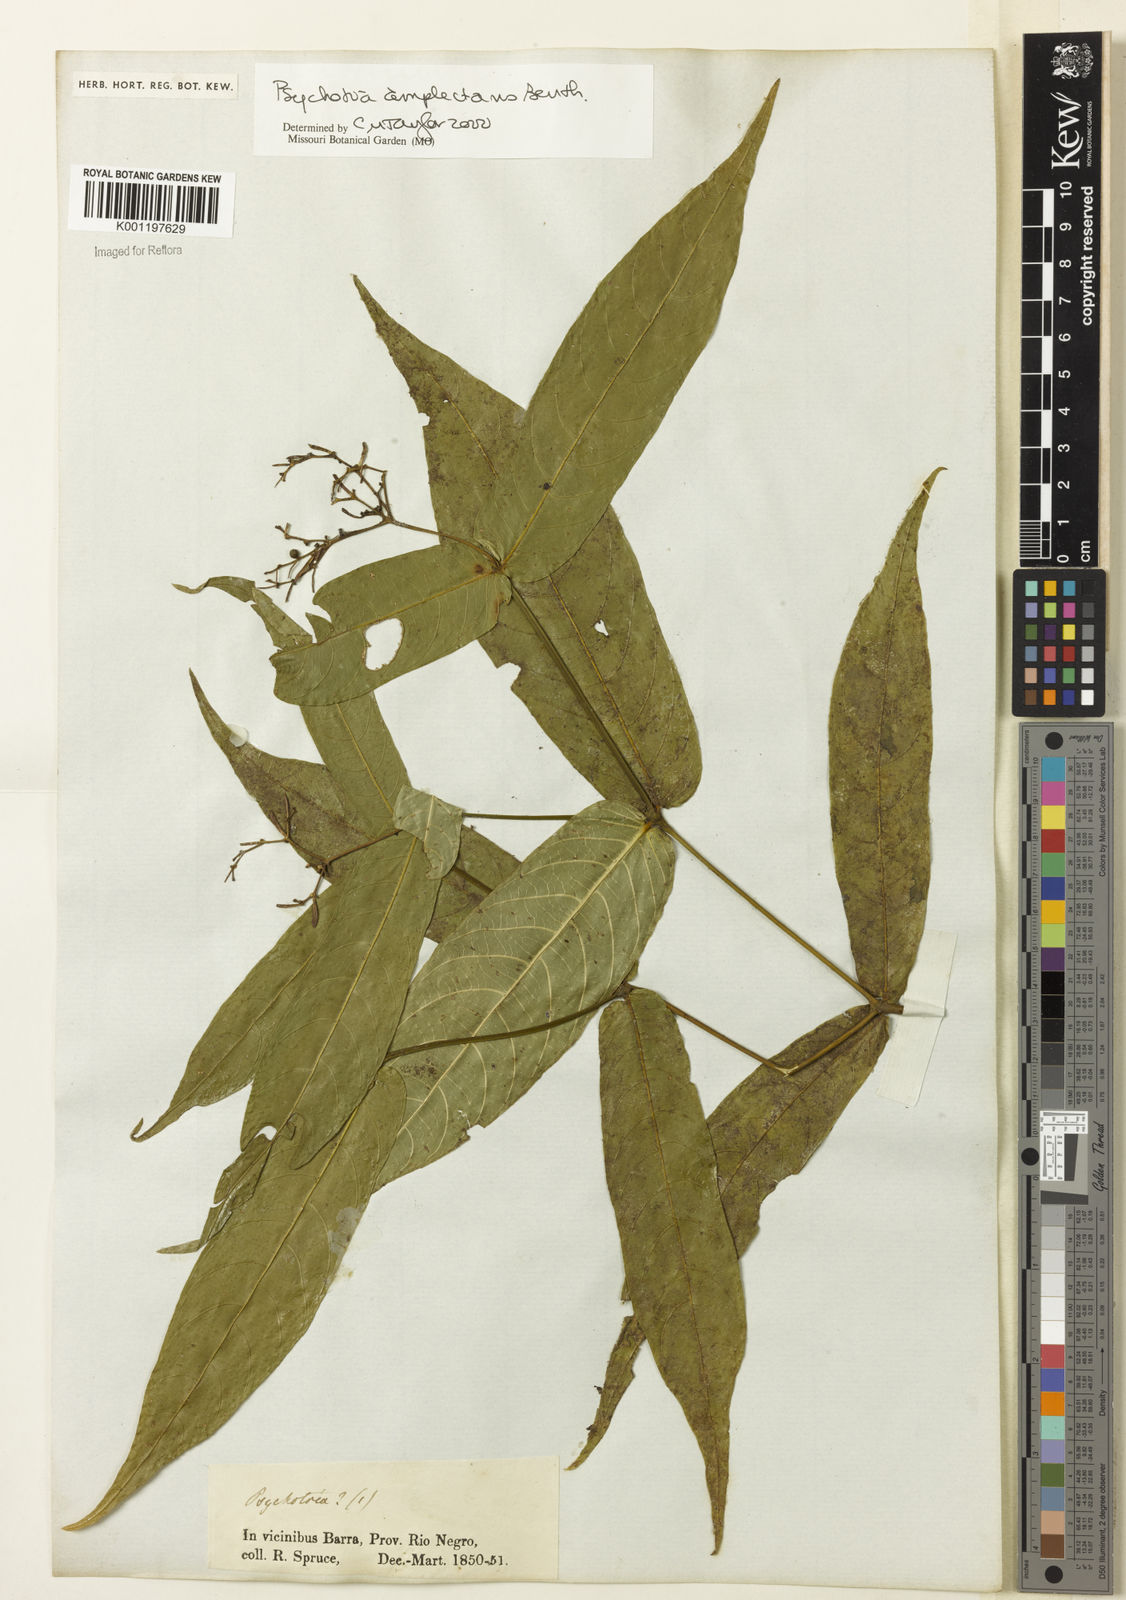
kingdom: Plantae
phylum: Tracheophyta
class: Magnoliopsida
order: Gentianales
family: Rubiaceae
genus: Psychotria
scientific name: Psychotria
